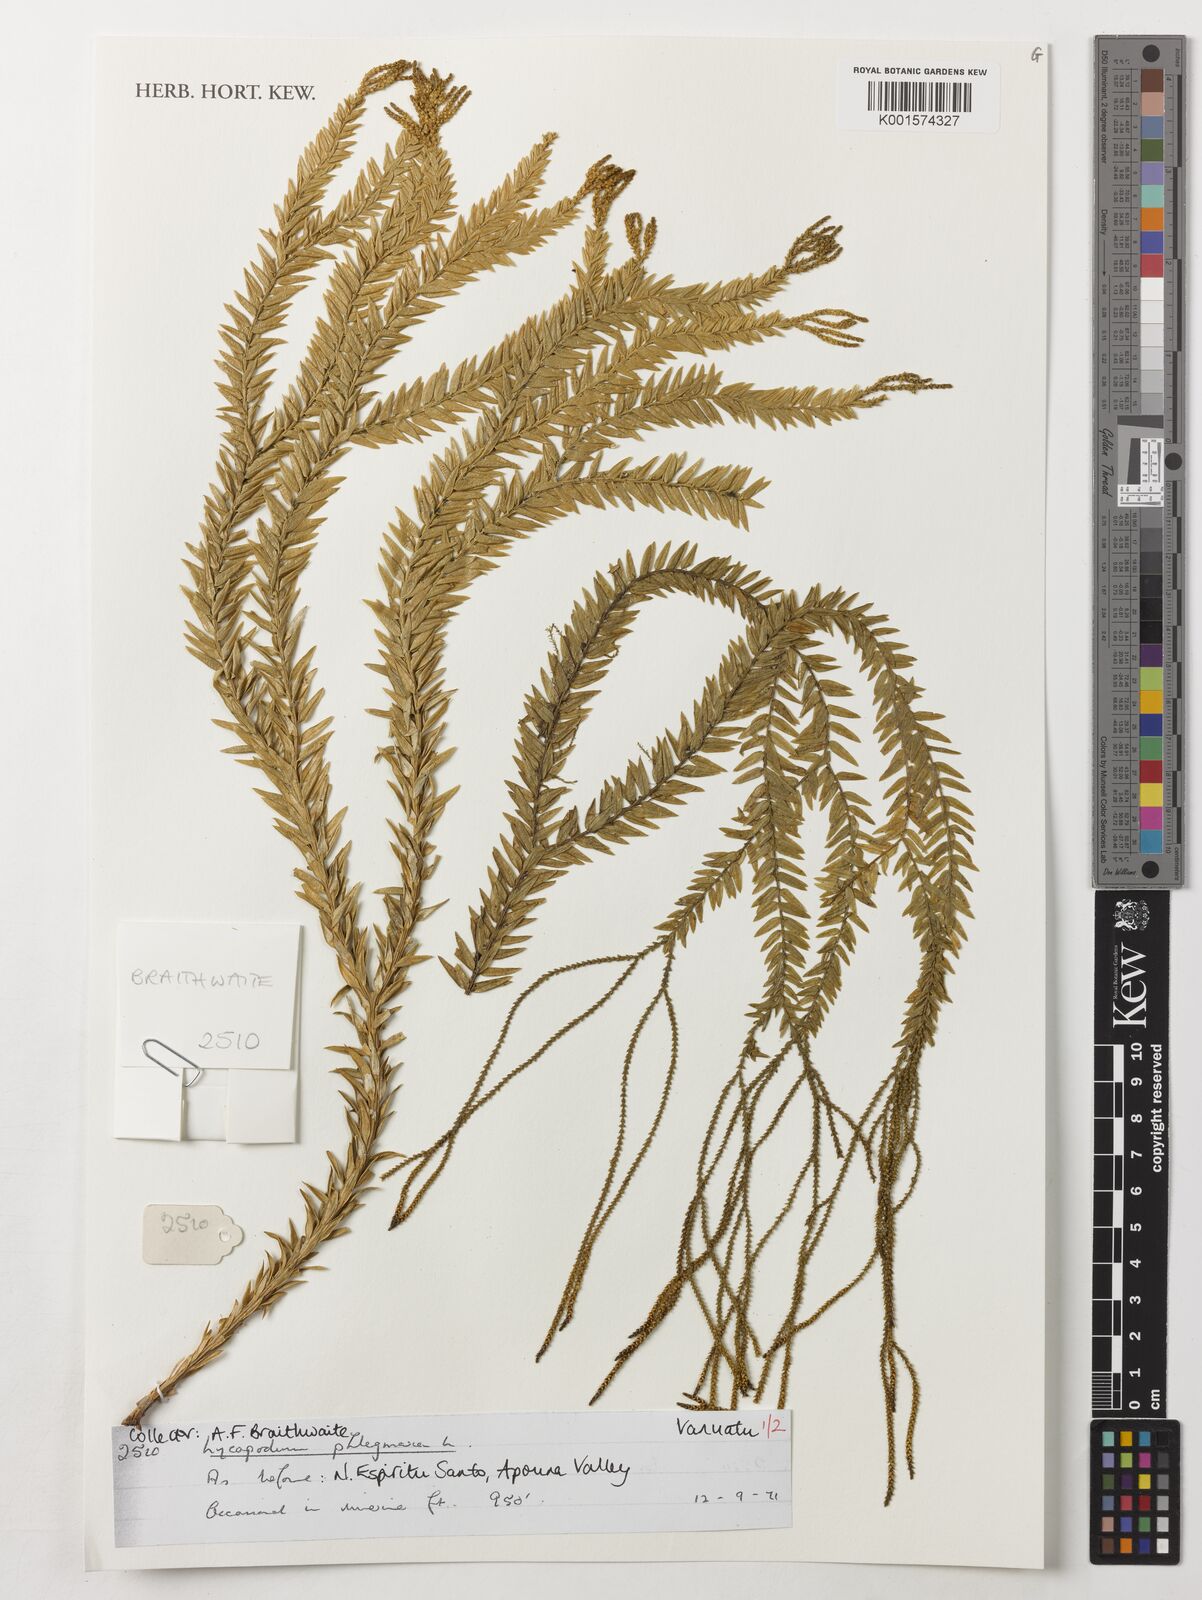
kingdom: Plantae
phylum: Tracheophyta
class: Lycopodiopsida
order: Lycopodiales
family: Lycopodiaceae
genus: Phlegmariurus
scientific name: Phlegmariurus phlegmaria
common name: Coarse tassel-fern
